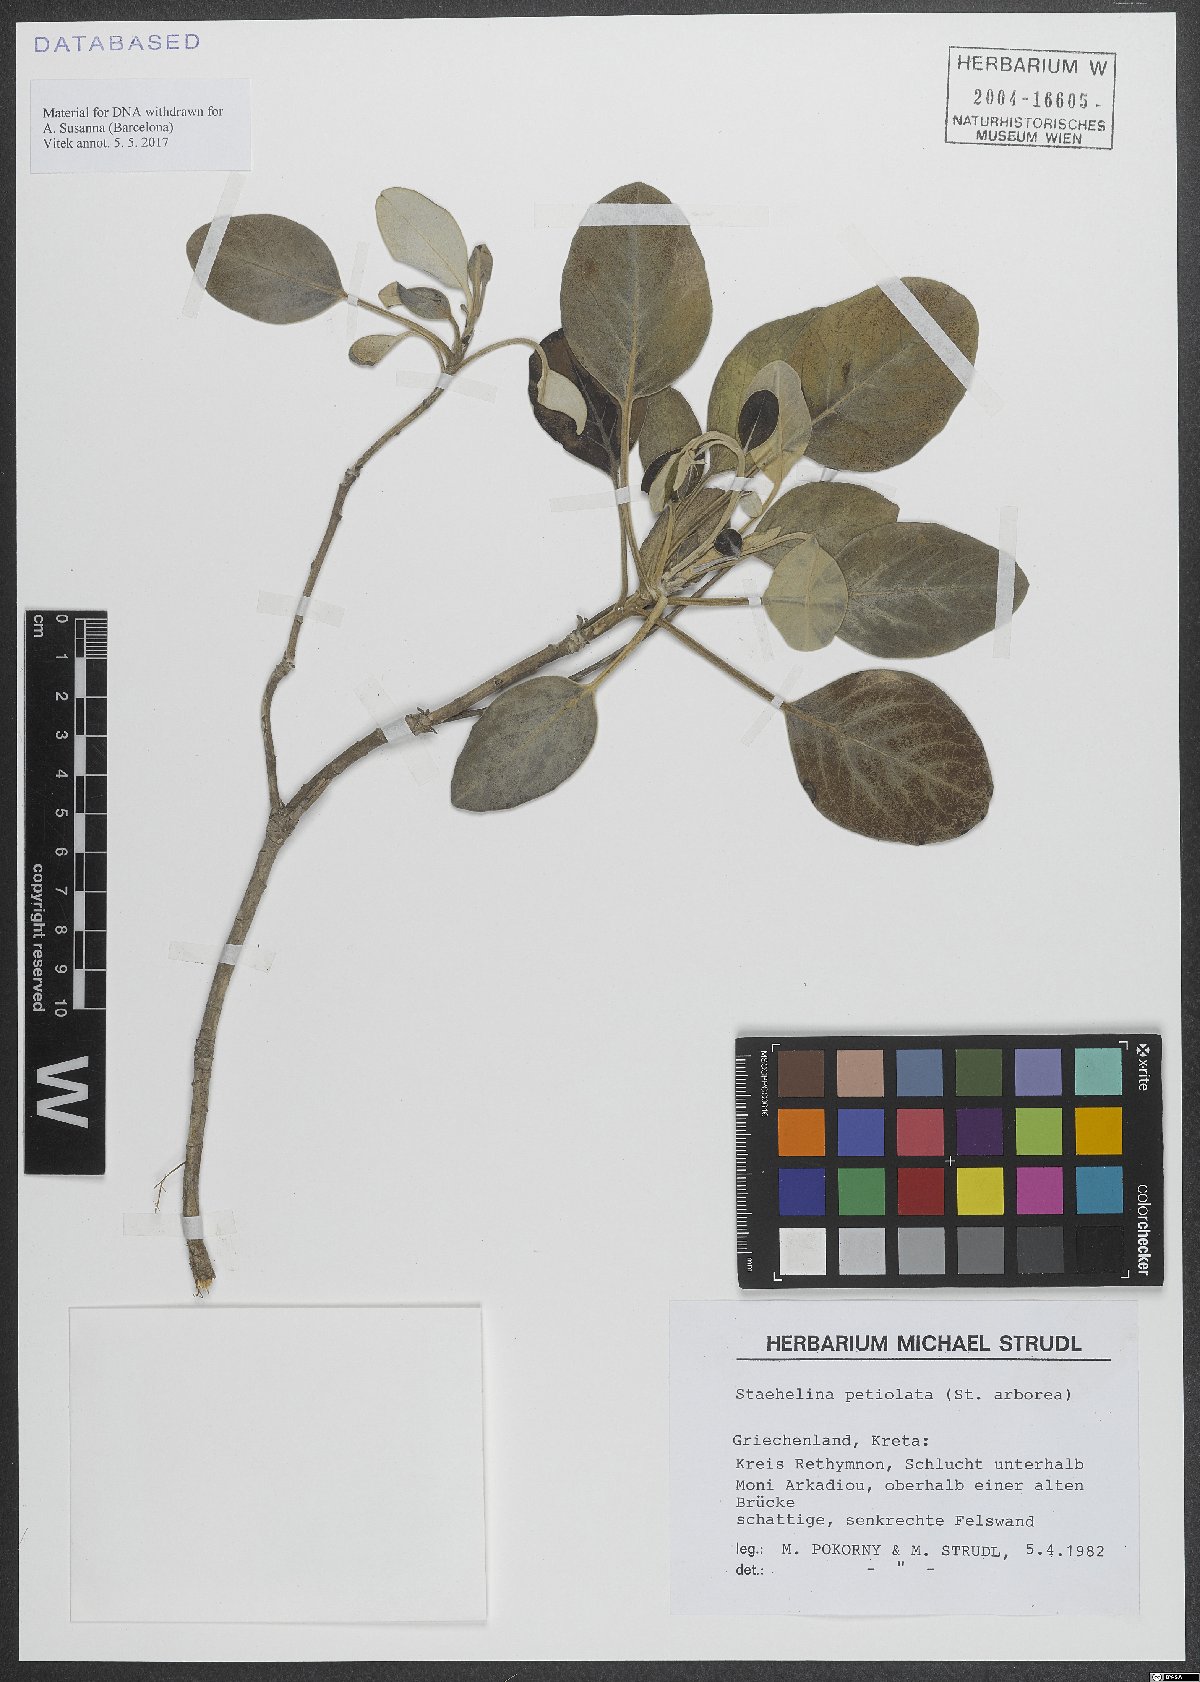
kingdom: Plantae
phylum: Tracheophyta
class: Magnoliopsida
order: Asterales
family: Asteraceae
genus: Staehelina
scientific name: Staehelina petiolata
